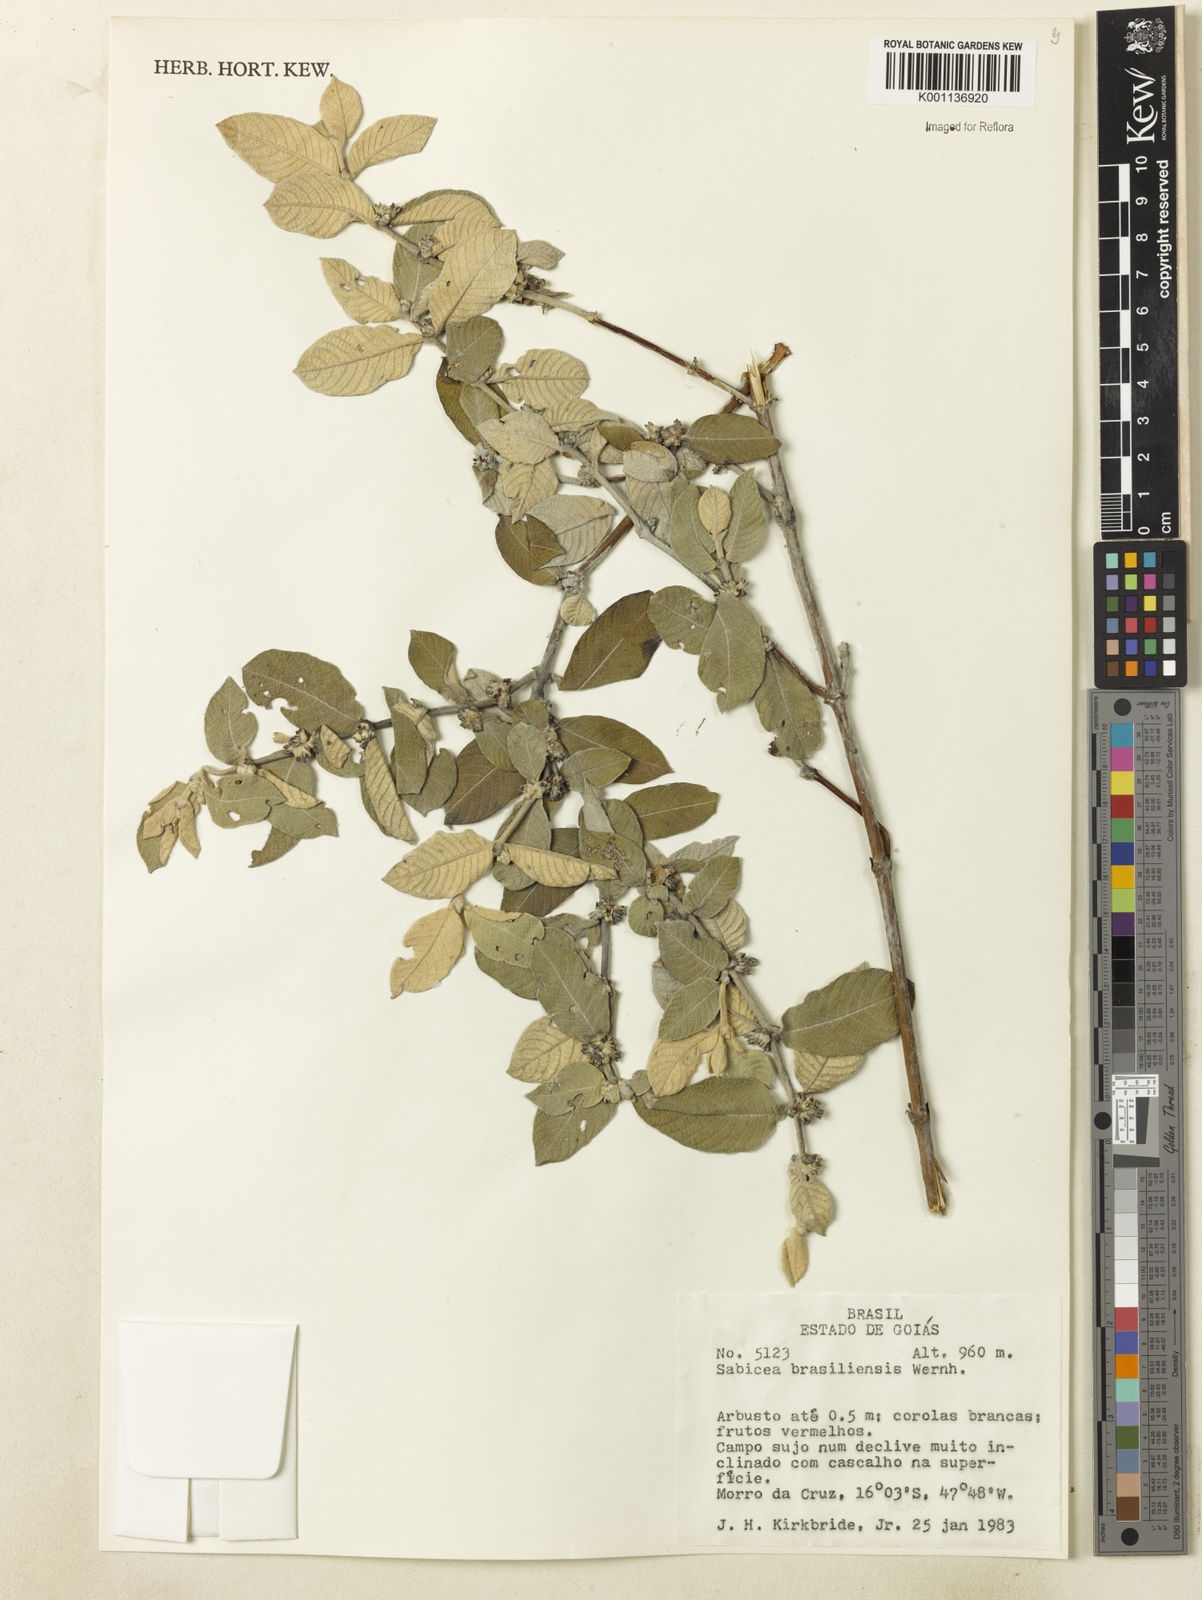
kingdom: Plantae
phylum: Tracheophyta
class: Magnoliopsida
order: Gentianales
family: Rubiaceae
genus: Sabicea
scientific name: Sabicea brasiliensis
